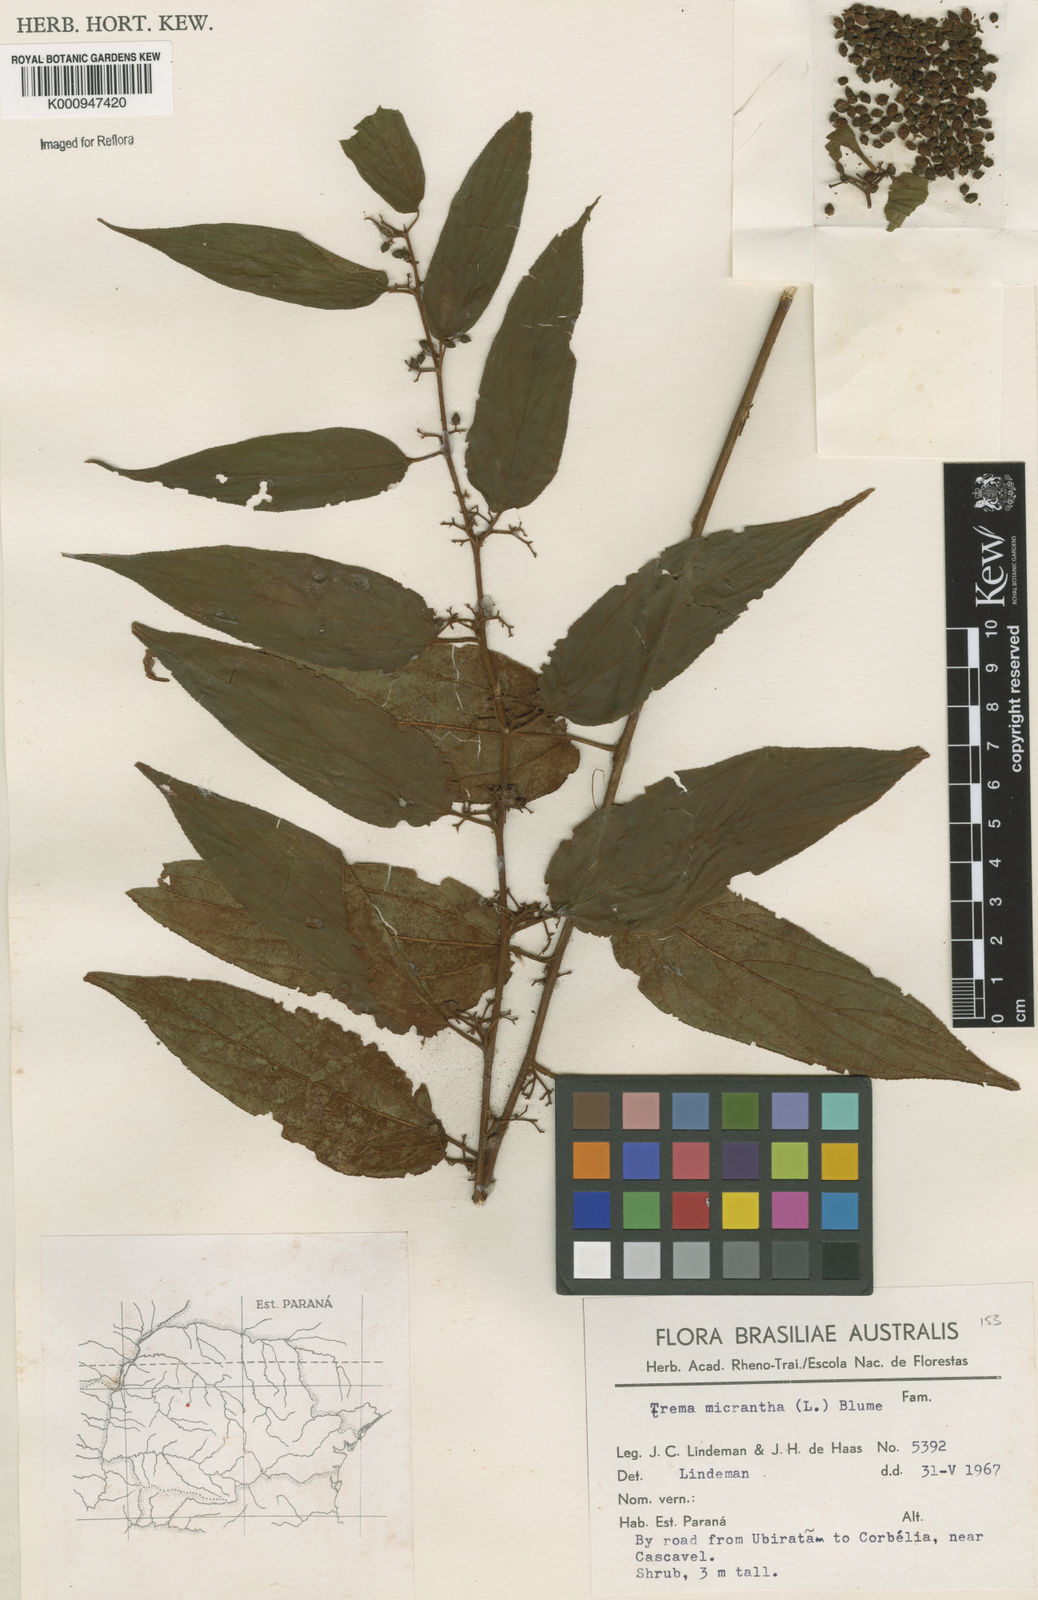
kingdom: Plantae
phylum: Tracheophyta
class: Magnoliopsida
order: Rosales
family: Cannabaceae
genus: Trema
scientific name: Trema micranthum
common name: Jamaican nettletree
